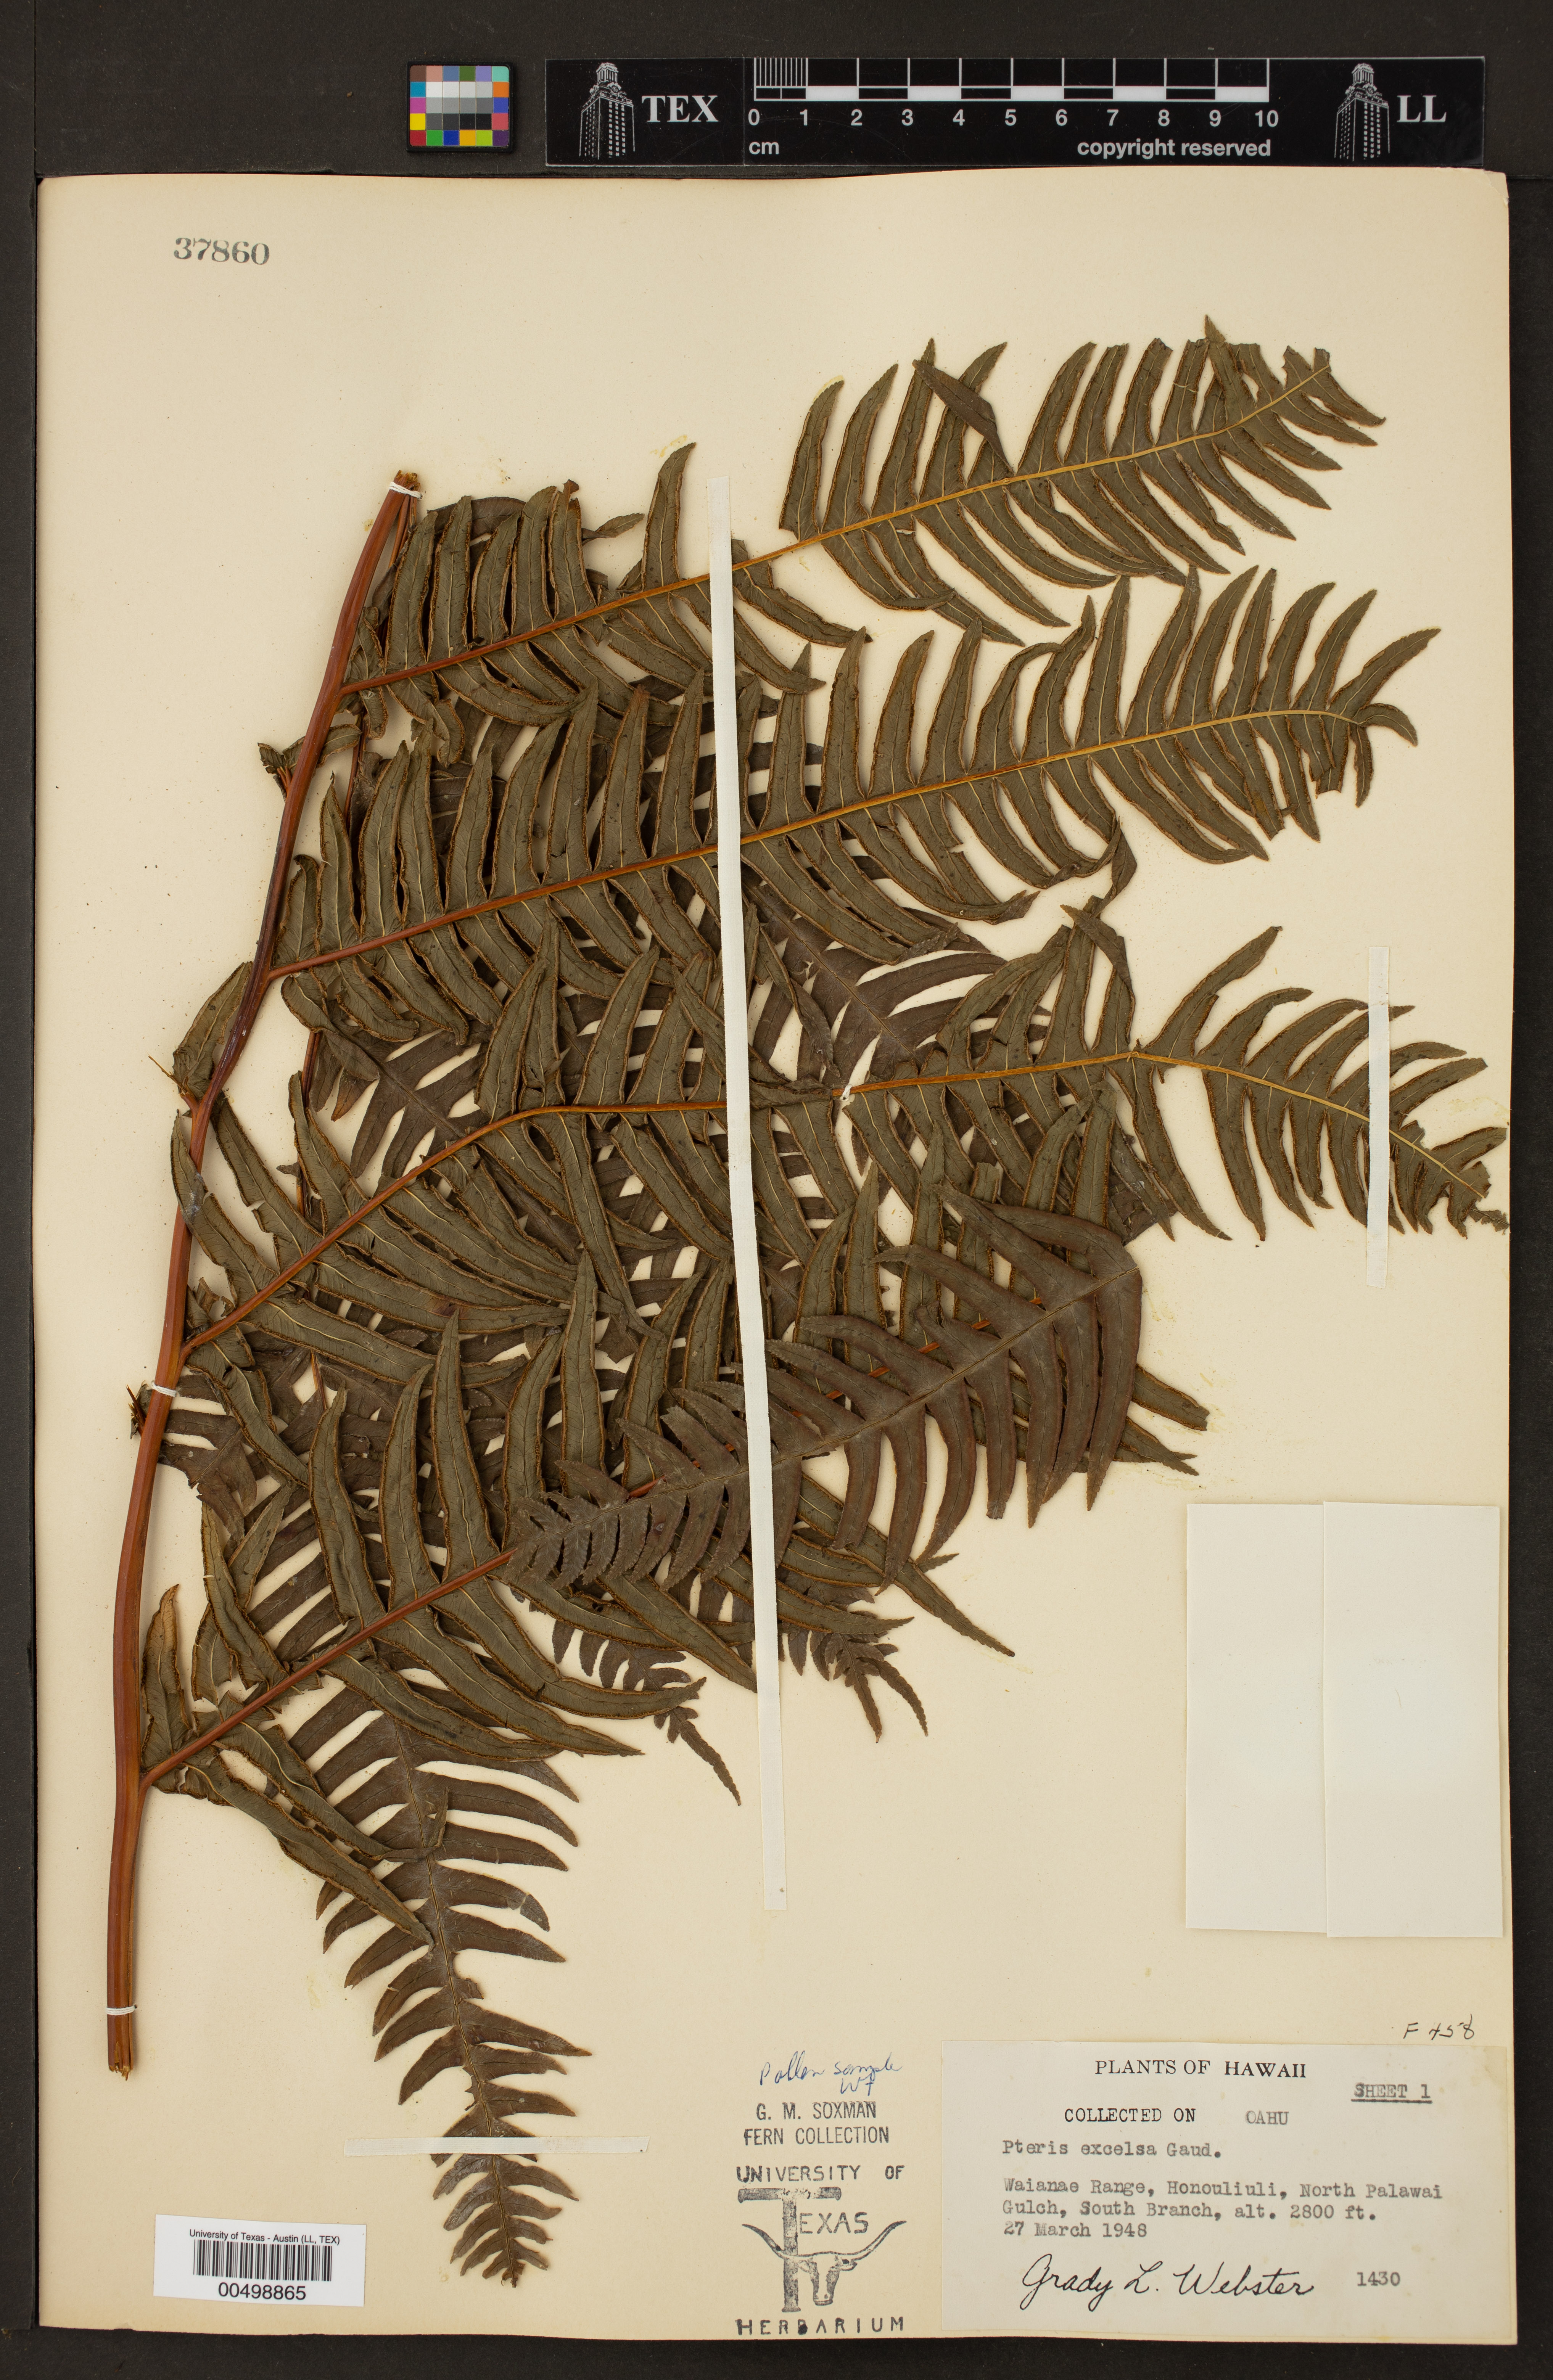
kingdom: Plantae
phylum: Tracheophyta
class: Polypodiopsida
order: Polypodiales
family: Pteridaceae
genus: Pteris
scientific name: Pteris terminalis
